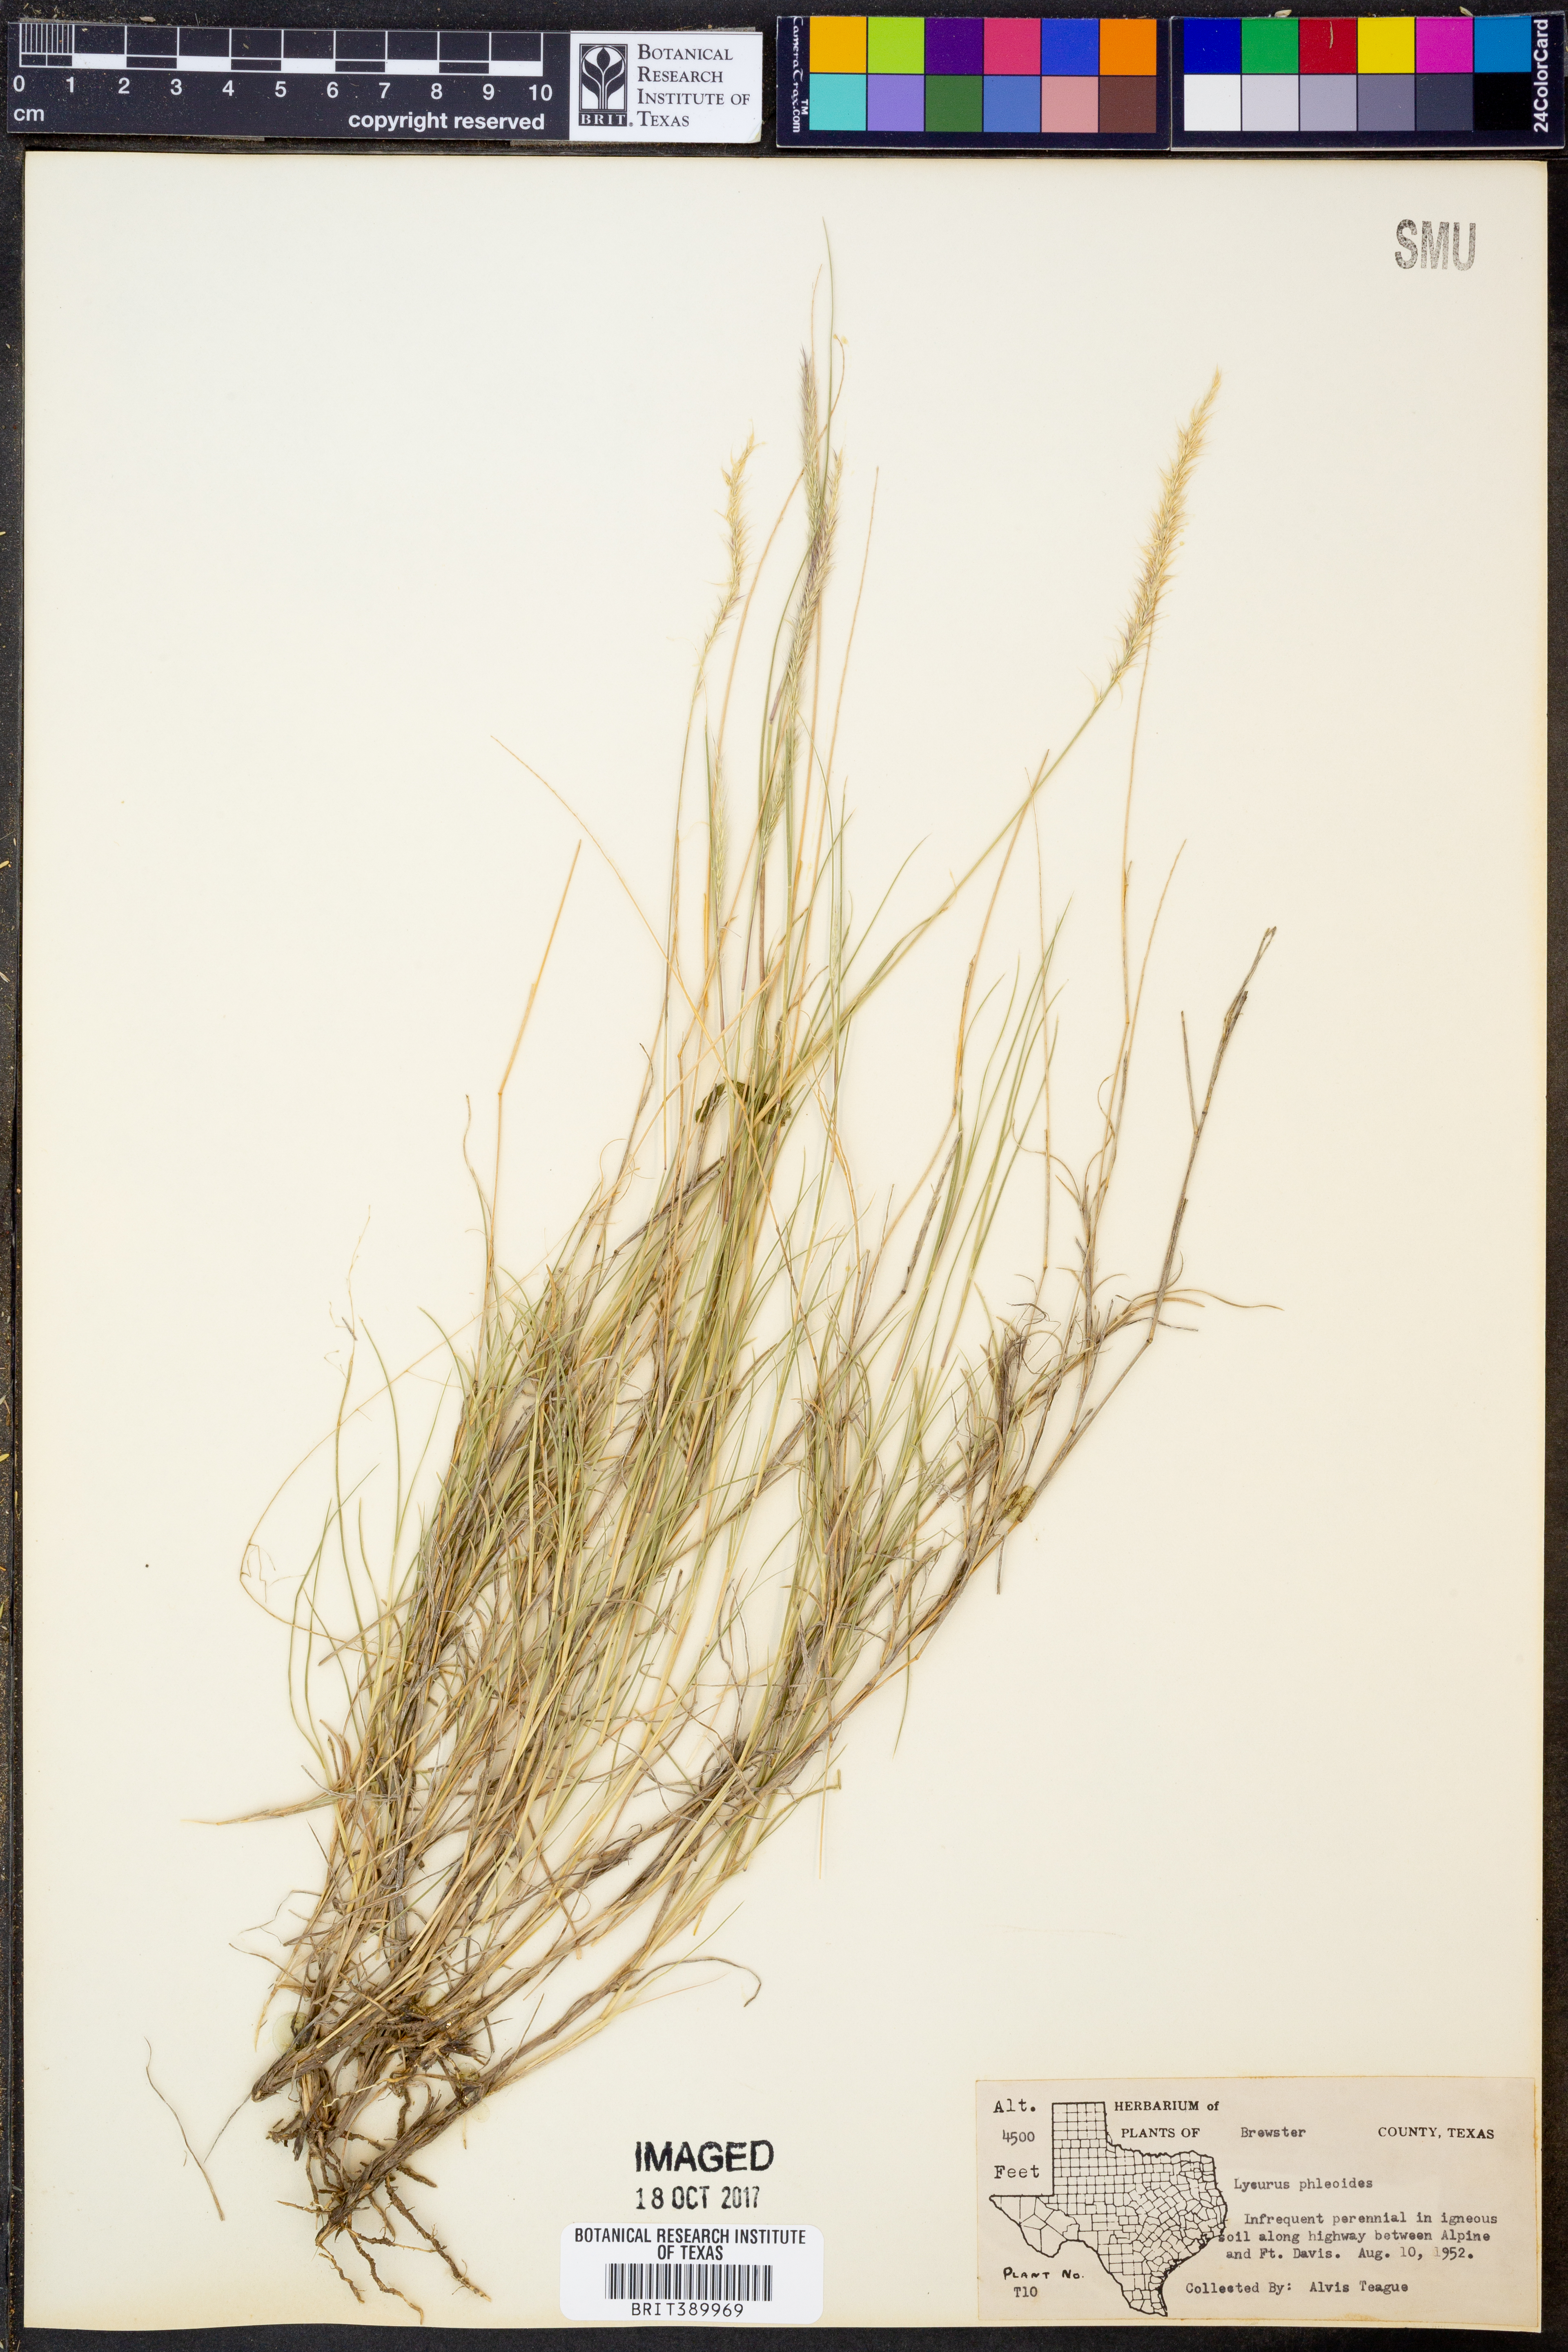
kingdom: Plantae
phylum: Tracheophyta
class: Liliopsida
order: Poales
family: Poaceae
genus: Muhlenbergia
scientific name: Muhlenbergia phleoides
